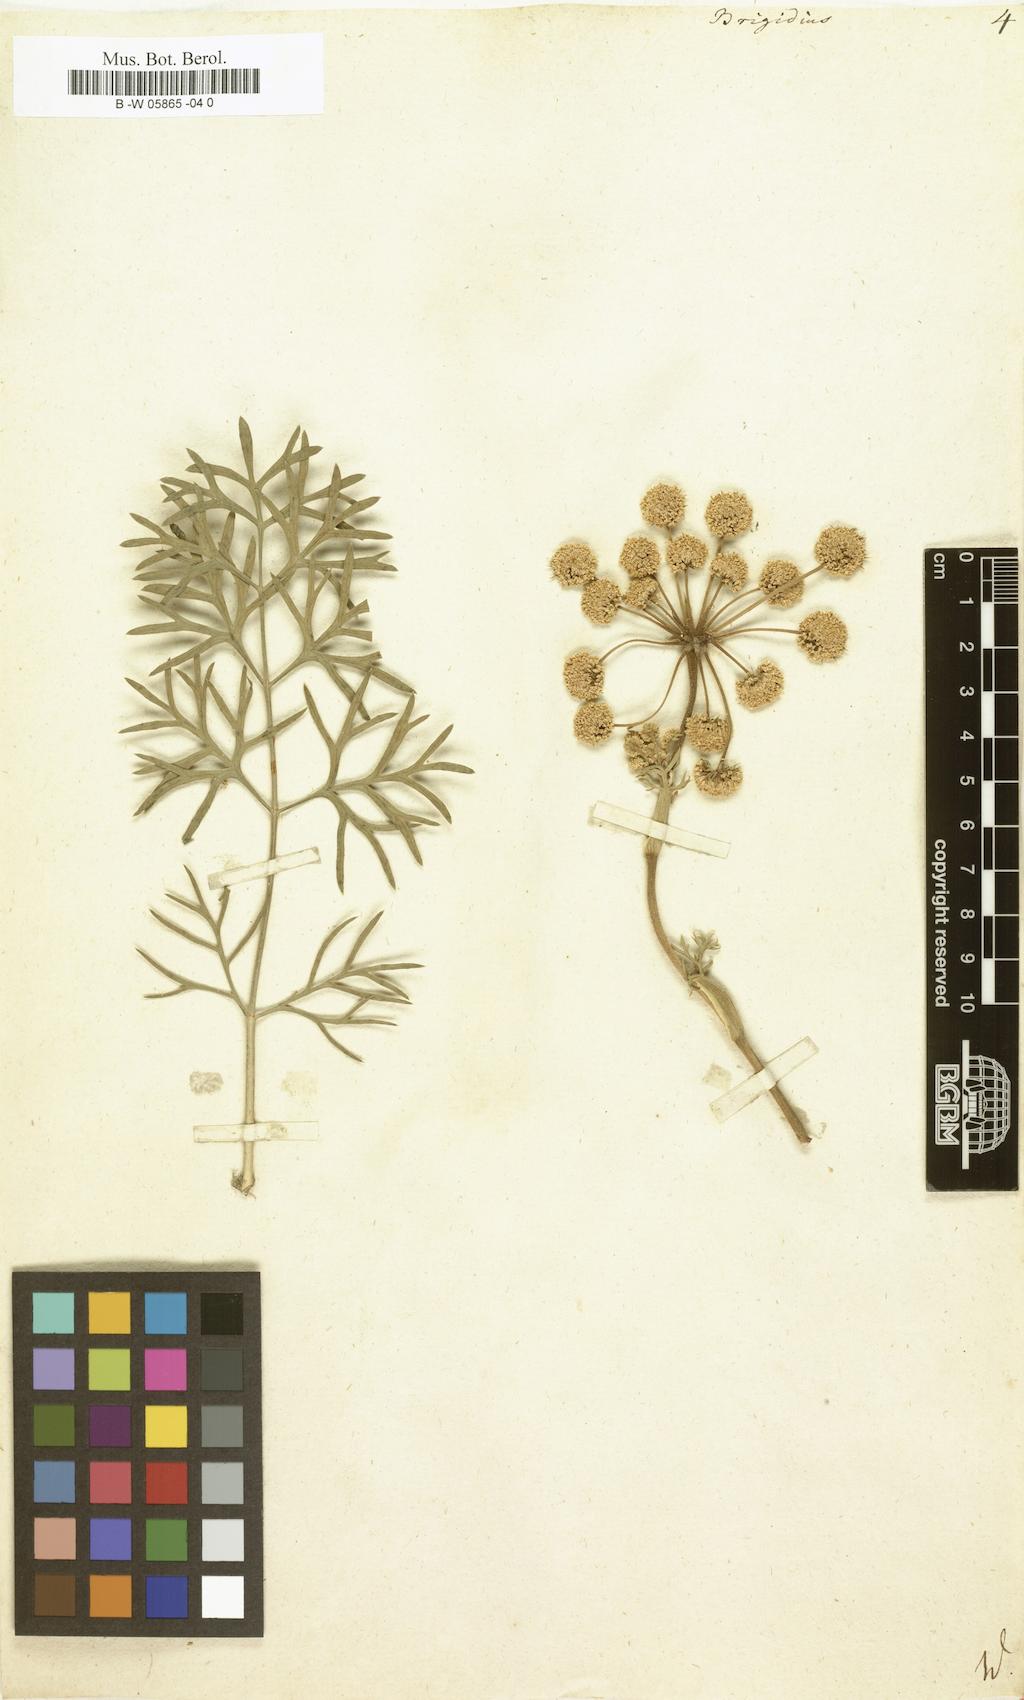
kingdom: Plantae
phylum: Tracheophyta
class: Magnoliopsida
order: Apiales
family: Apiaceae
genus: Ferula
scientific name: Ferula communis
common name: Giant fennel
